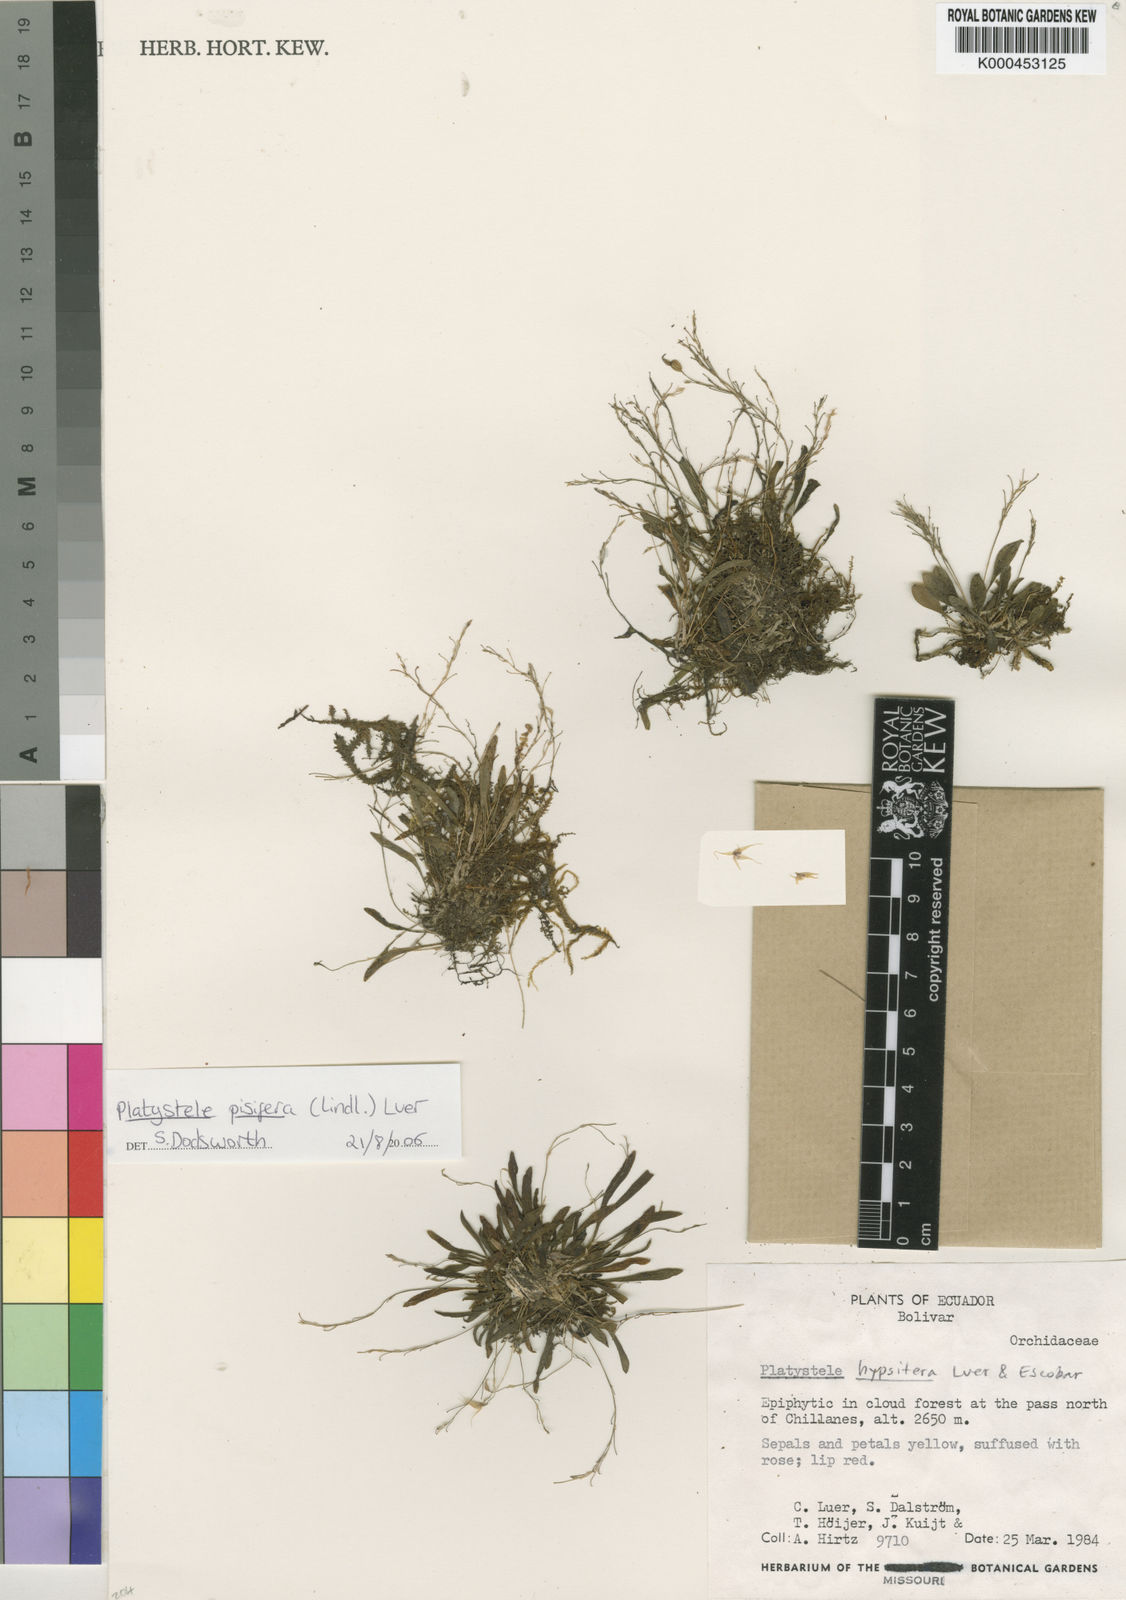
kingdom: Plantae
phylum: Tracheophyta
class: Liliopsida
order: Asparagales
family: Orchidaceae
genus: Platystele
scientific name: Platystele pisifera
